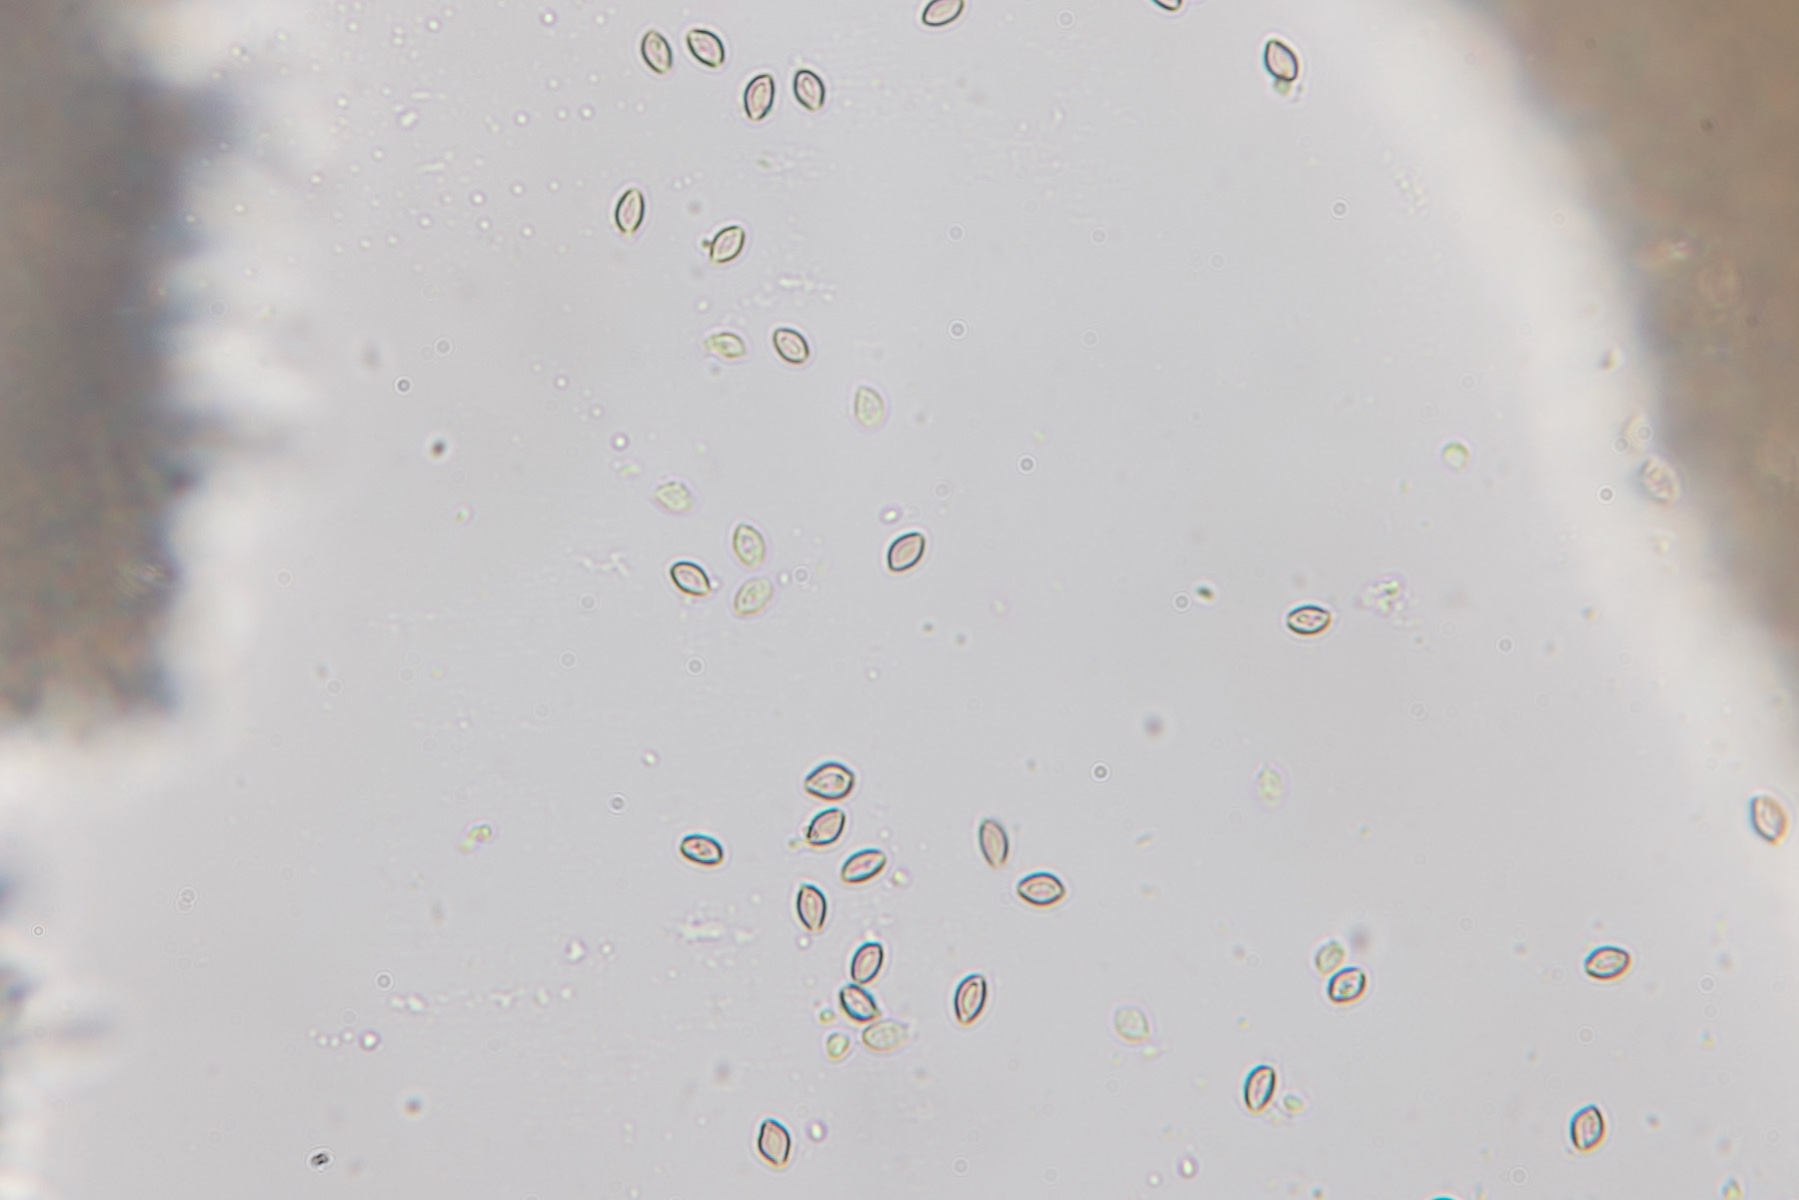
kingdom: Fungi
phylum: Basidiomycota
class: Agaricomycetes
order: Agaricales
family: Strophariaceae
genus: Deconica
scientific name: Deconica crobula
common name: træflis-stråhat
